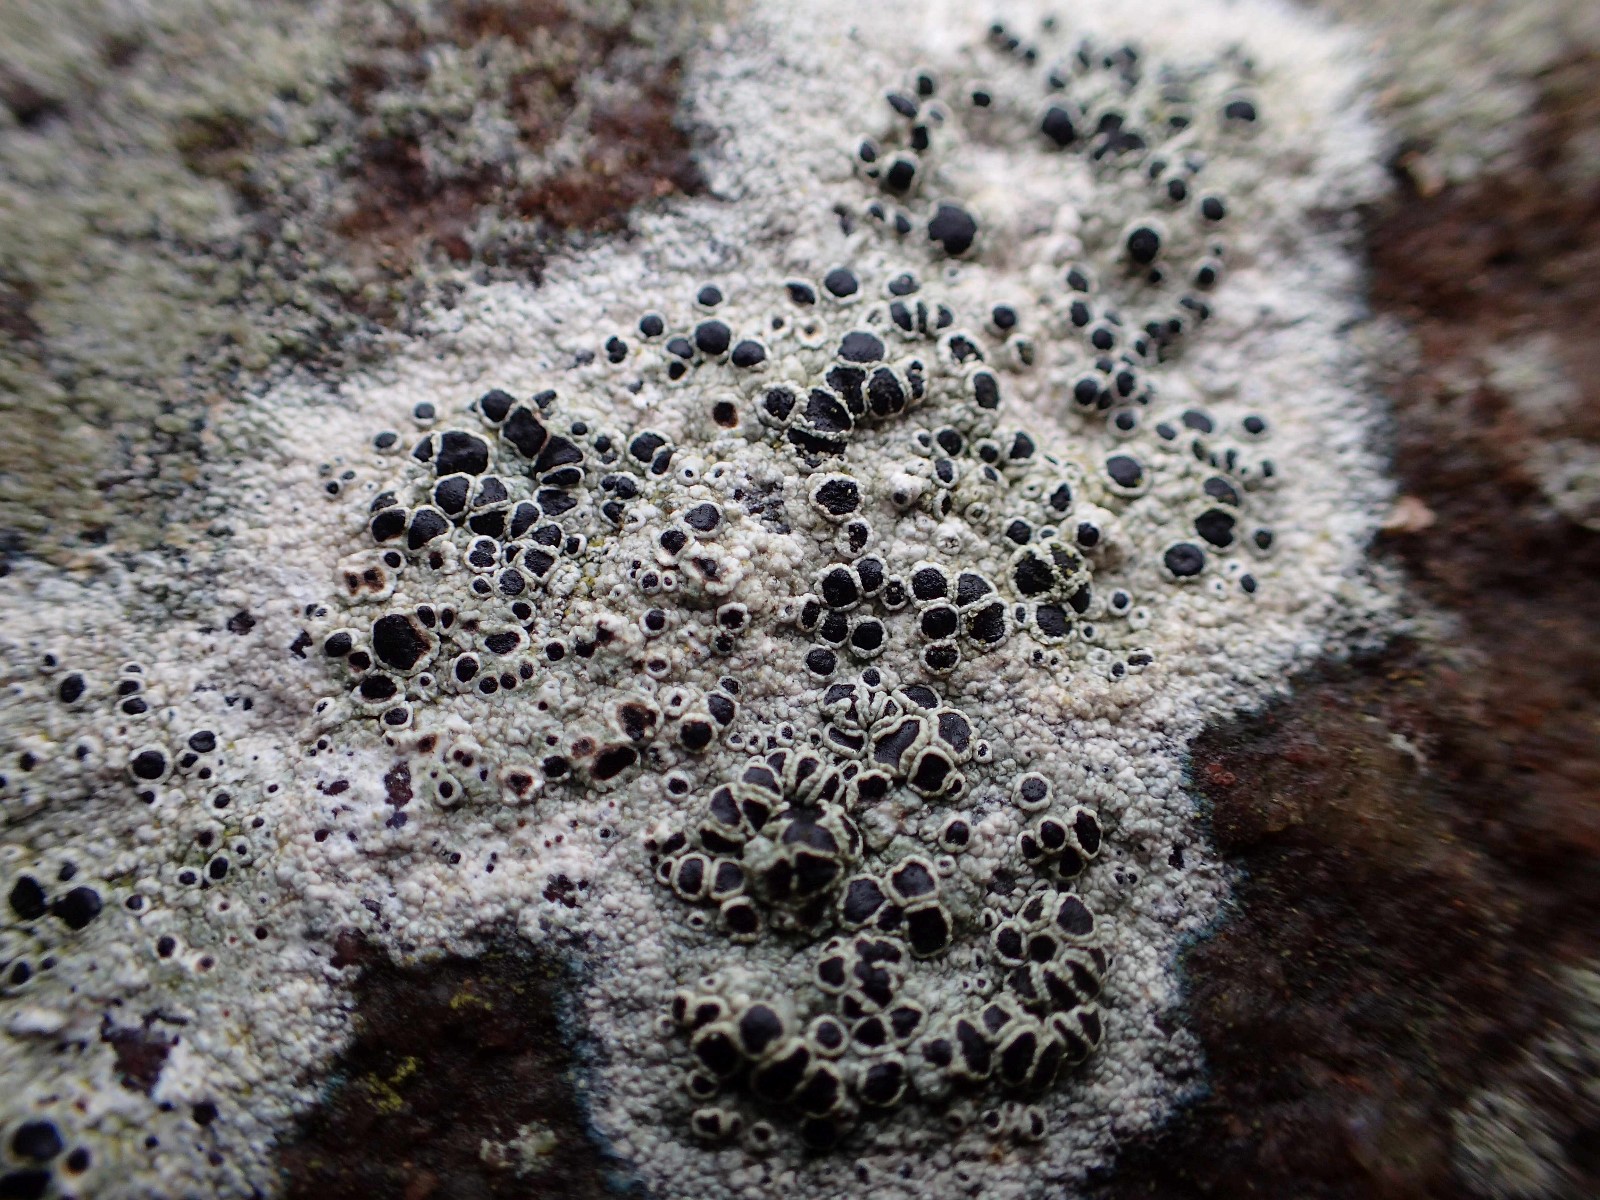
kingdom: Fungi
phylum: Ascomycota
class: Lecanoromycetes
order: Lecanorales
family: Tephromelataceae
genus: Tephromela
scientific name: Tephromela atra
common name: sortfrugtet kantskivelav
